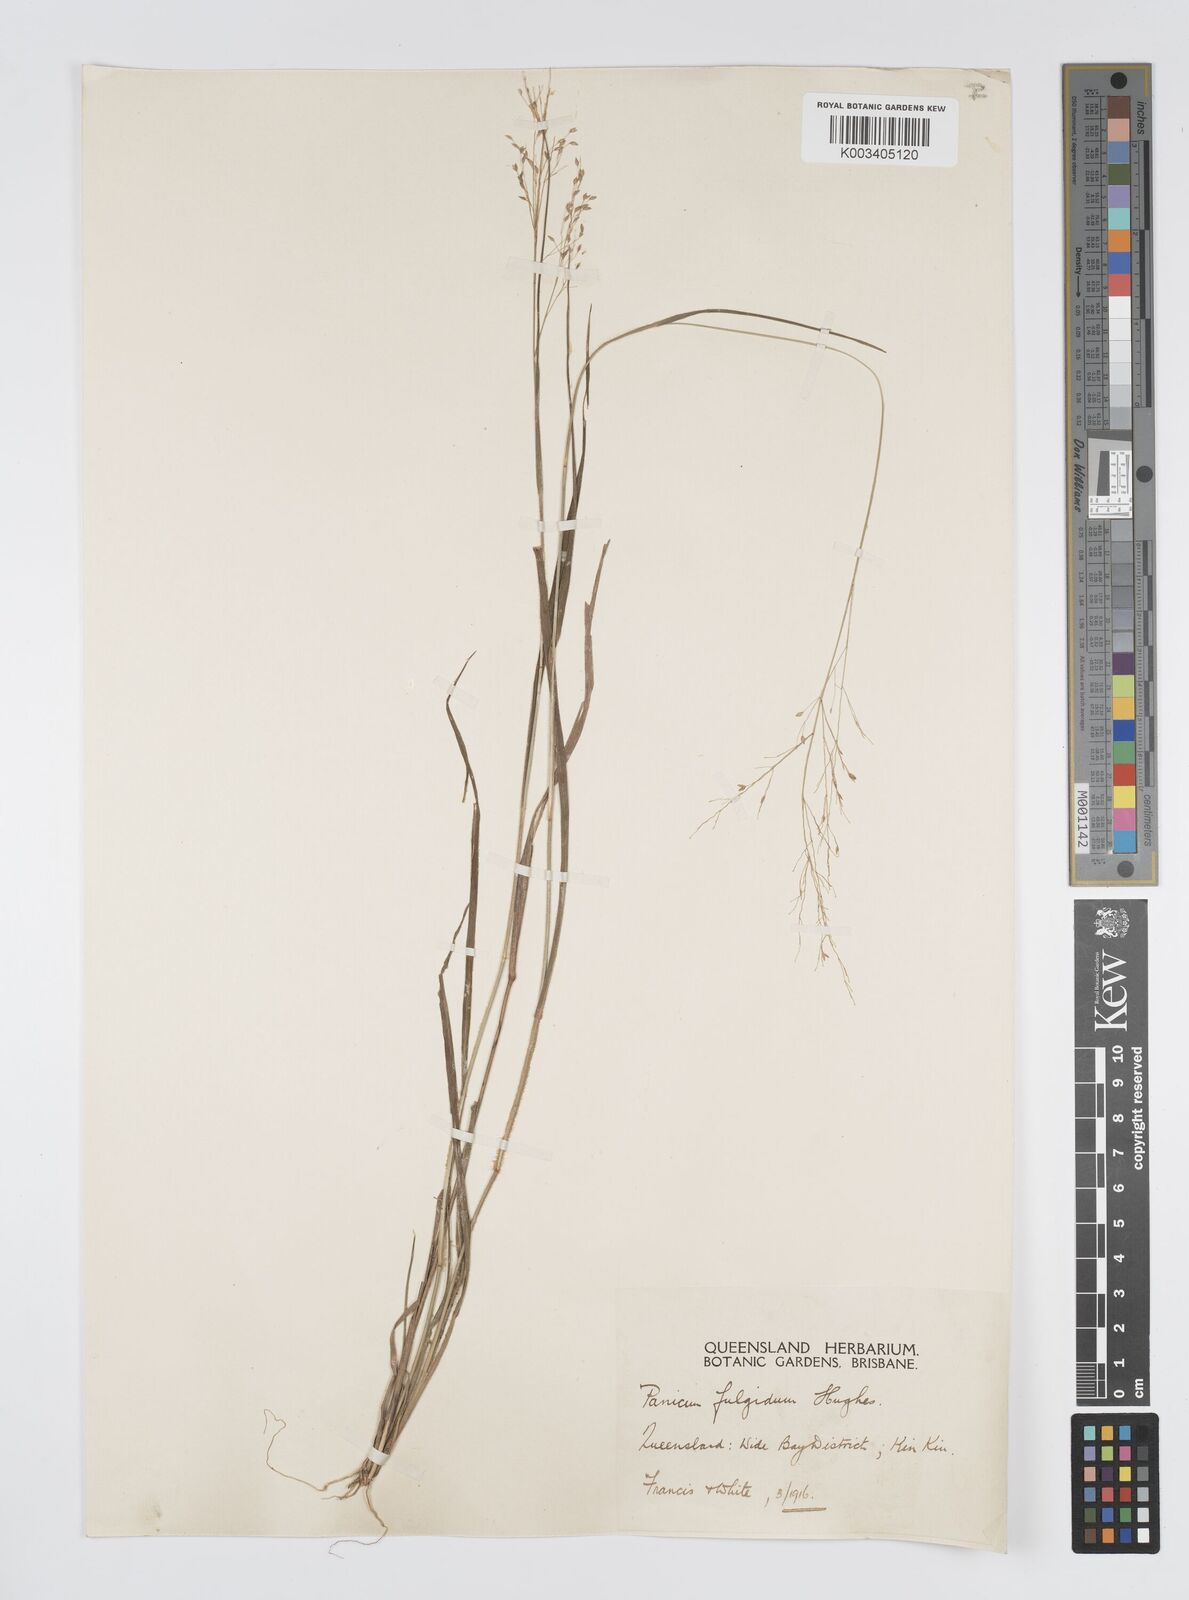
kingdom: Plantae
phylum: Tracheophyta
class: Liliopsida
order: Poales
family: Poaceae
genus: Panicum
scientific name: Panicum simile
